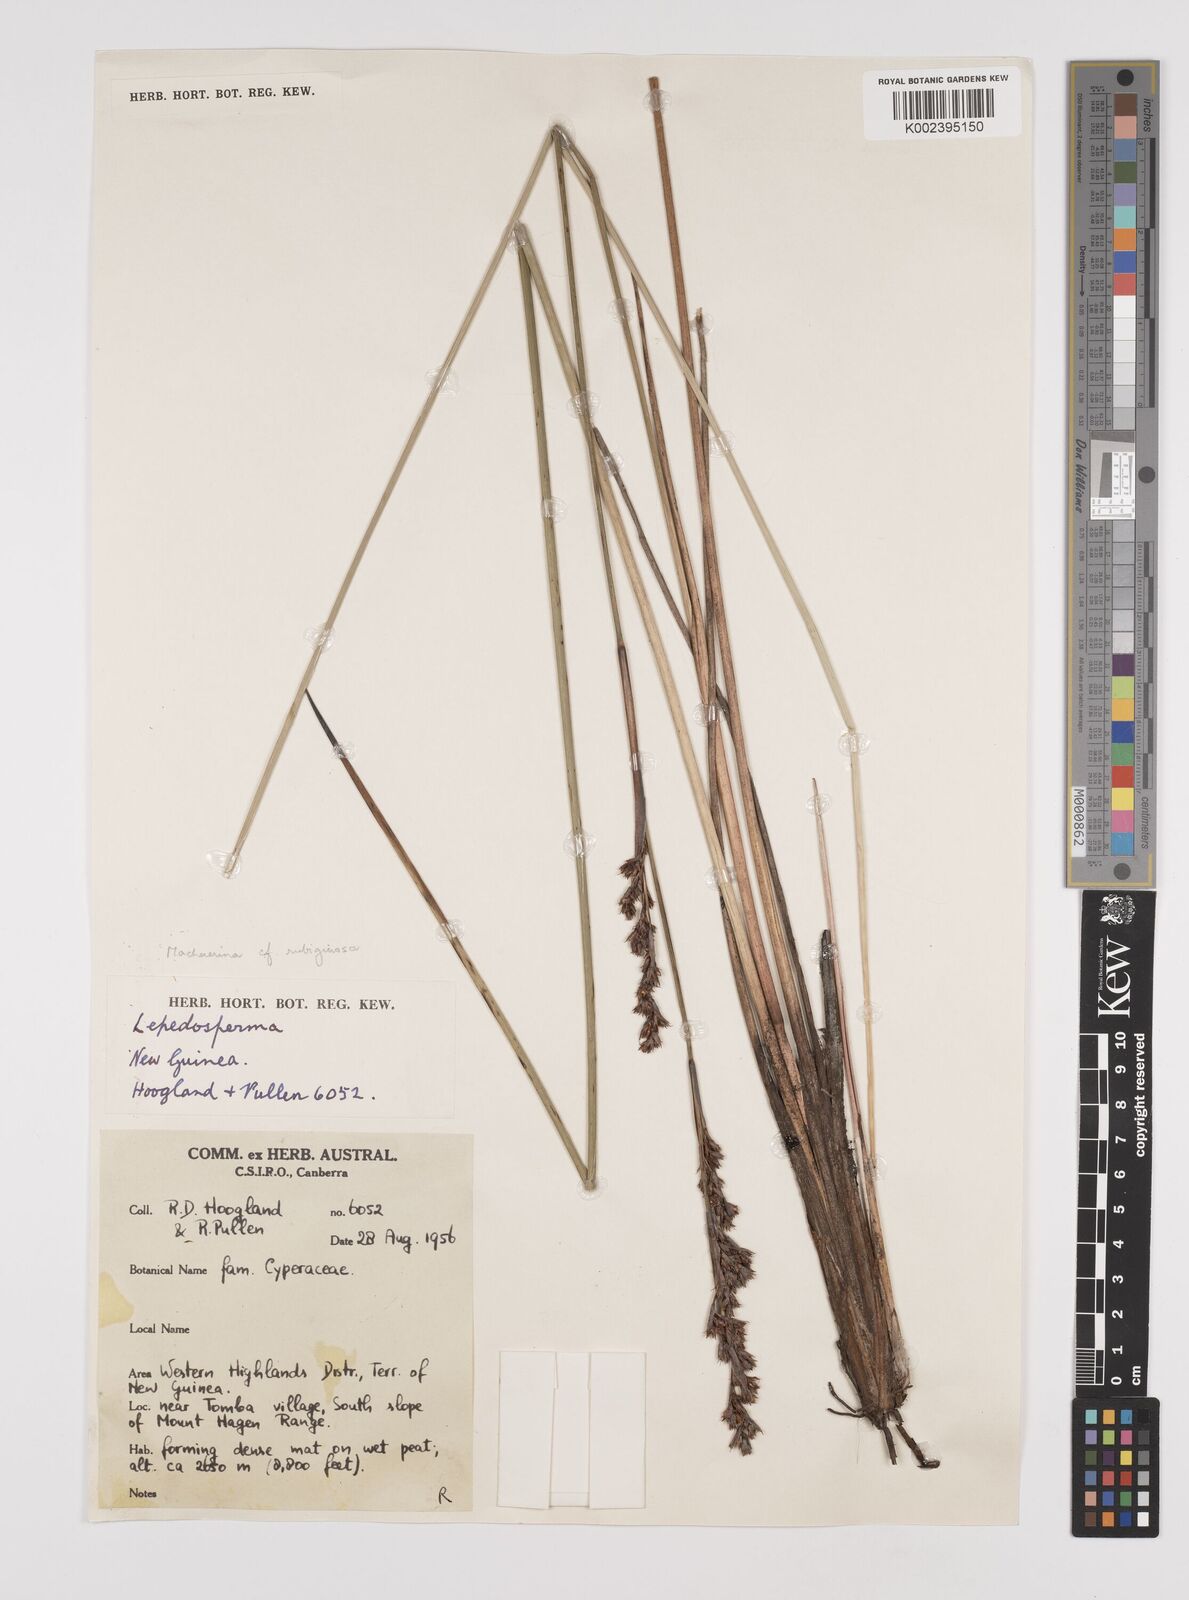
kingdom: Plantae
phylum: Tracheophyta
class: Liliopsida
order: Poales
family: Cyperaceae
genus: Machaerina
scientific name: Machaerina rubiginosa
